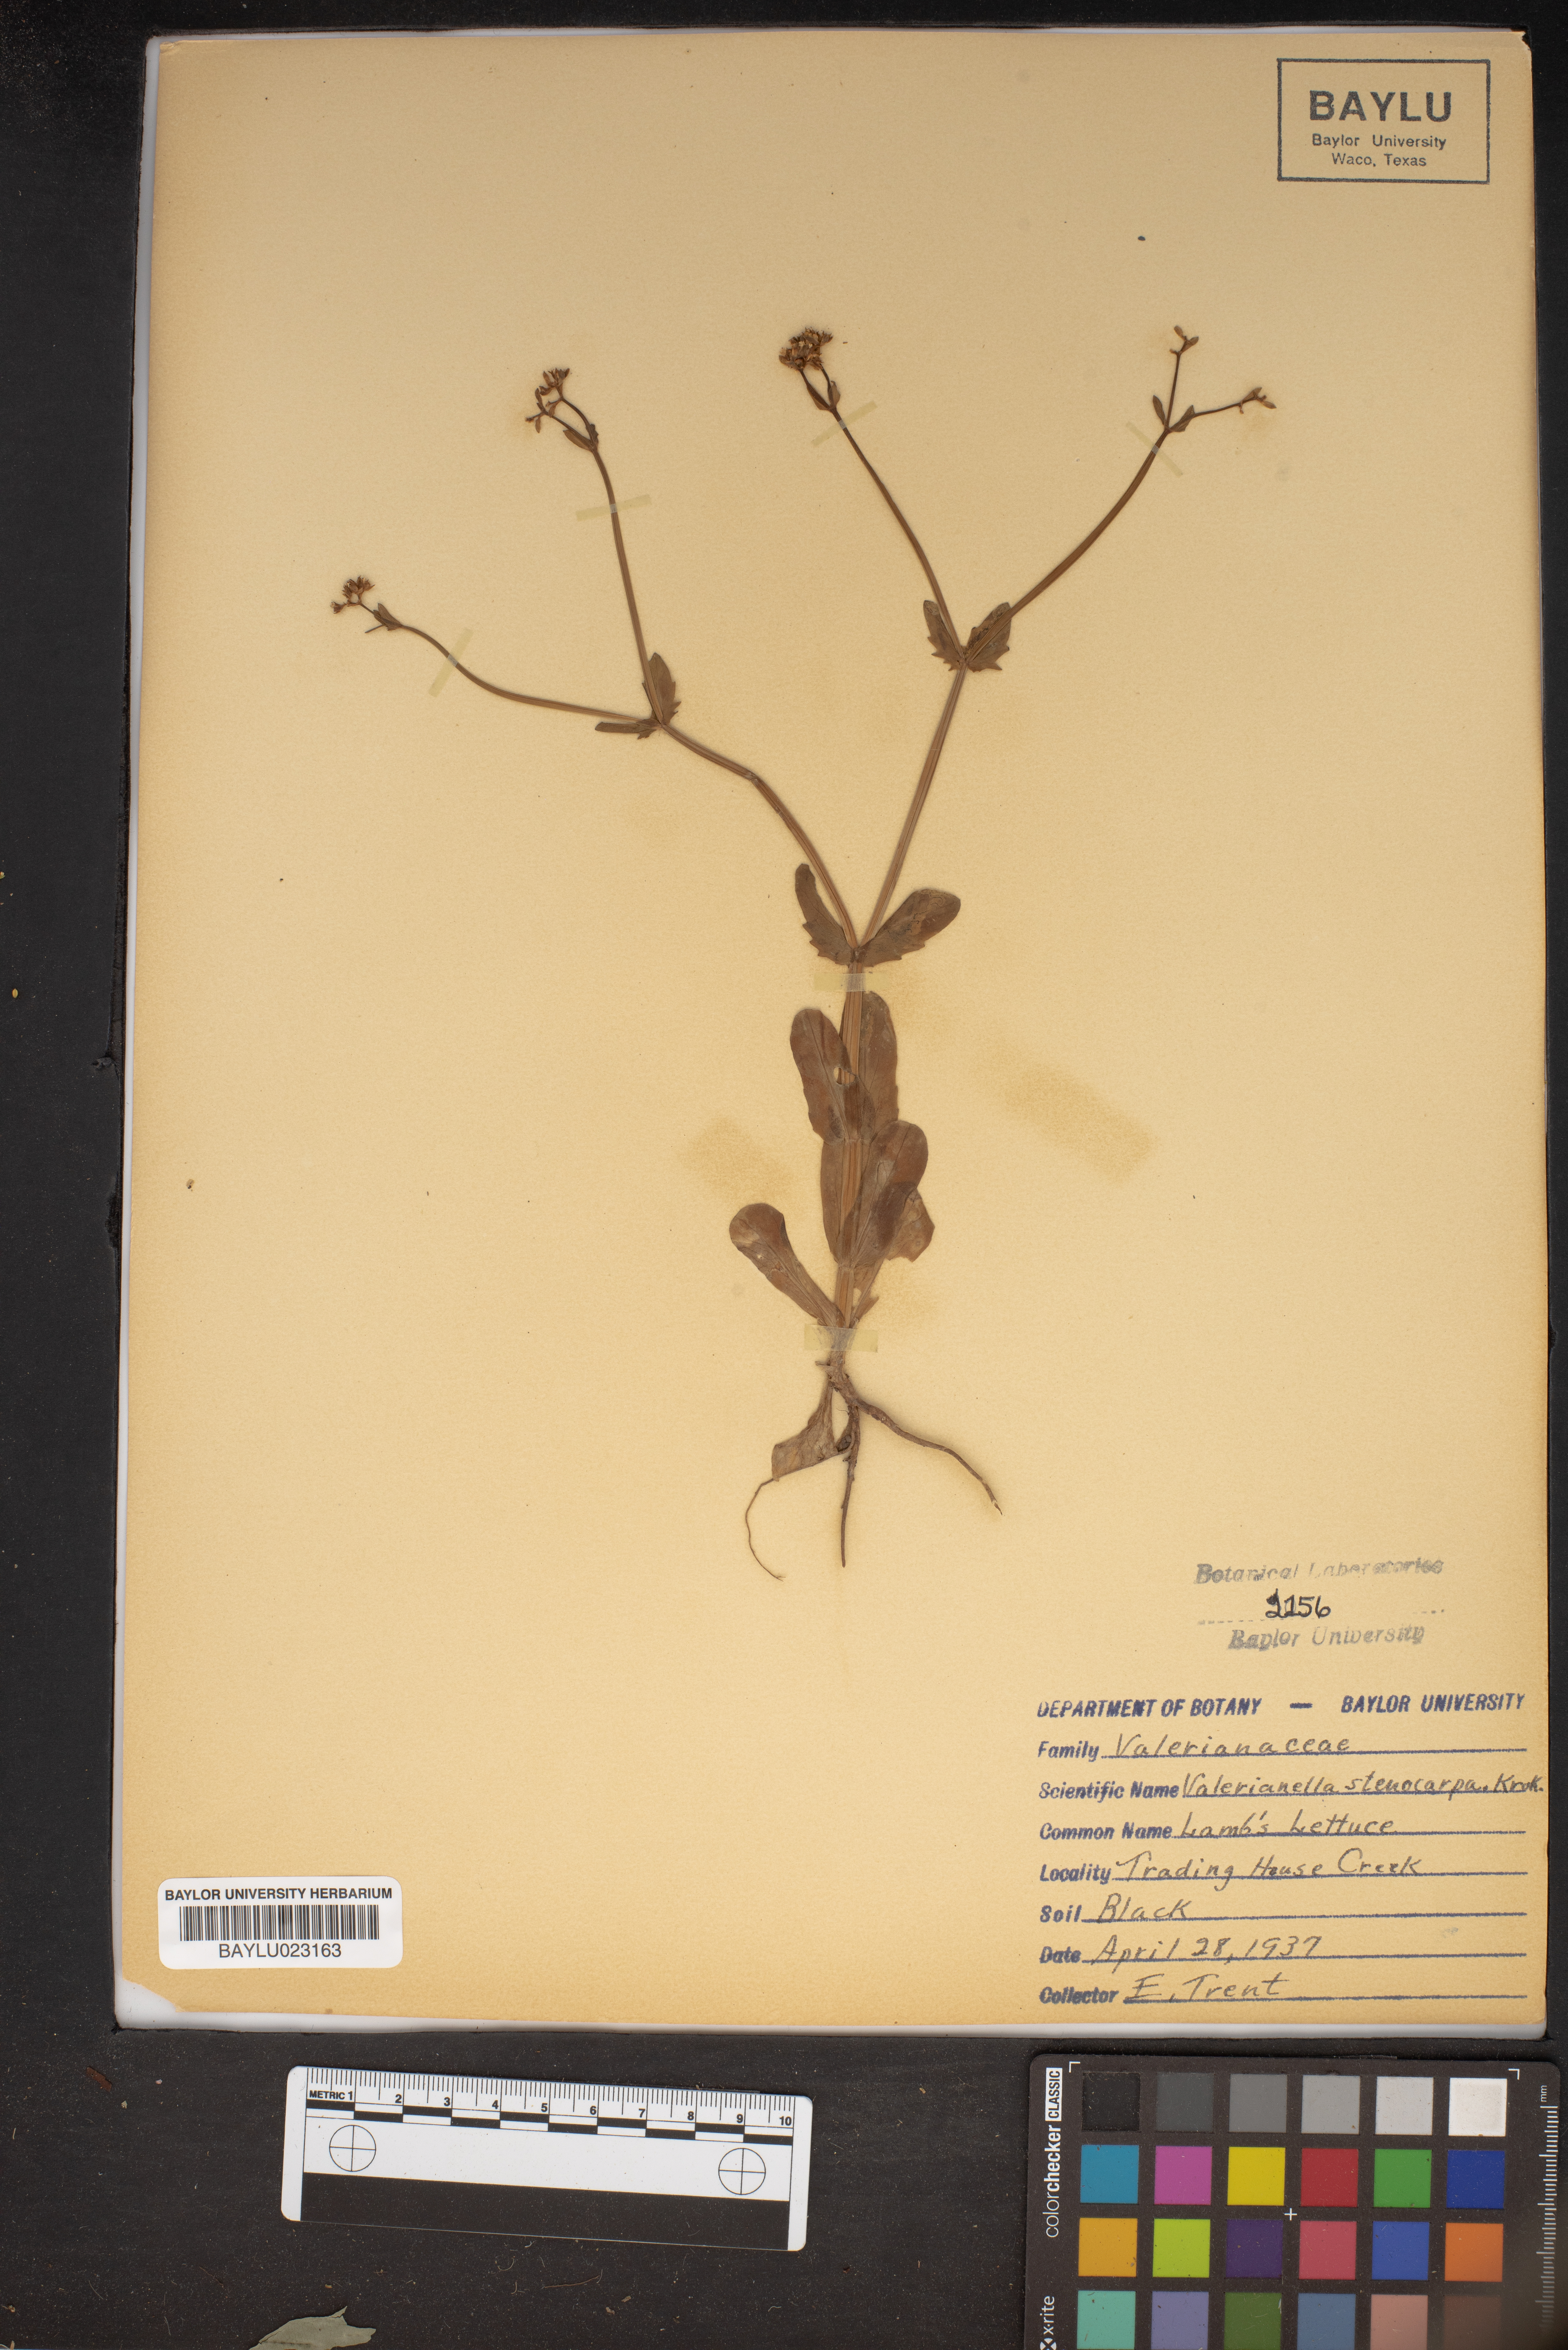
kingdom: Plantae
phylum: Tracheophyta
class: Magnoliopsida
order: Dipsacales
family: Caprifoliaceae
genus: Valerianella
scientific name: Valerianella stenocarpa
